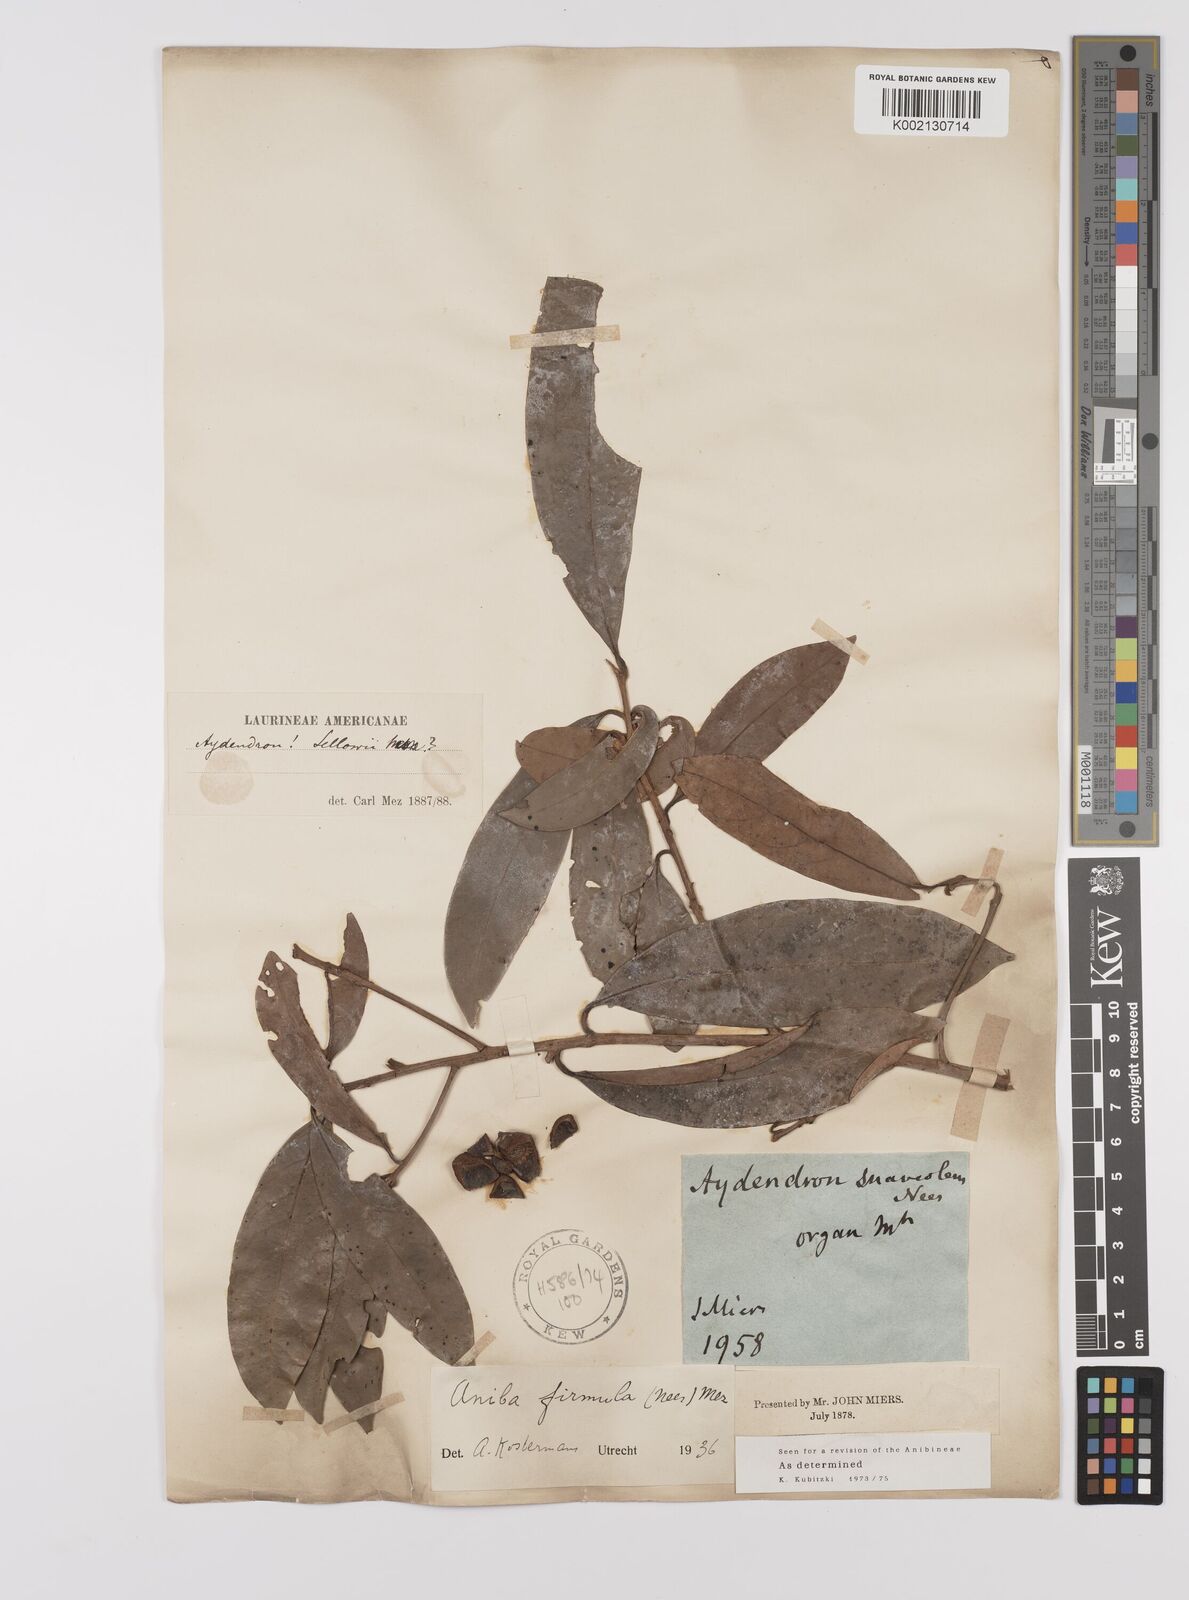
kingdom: Plantae
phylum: Tracheophyta
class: Magnoliopsida
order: Laurales
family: Lauraceae
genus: Aniba
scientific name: Aniba firmula
